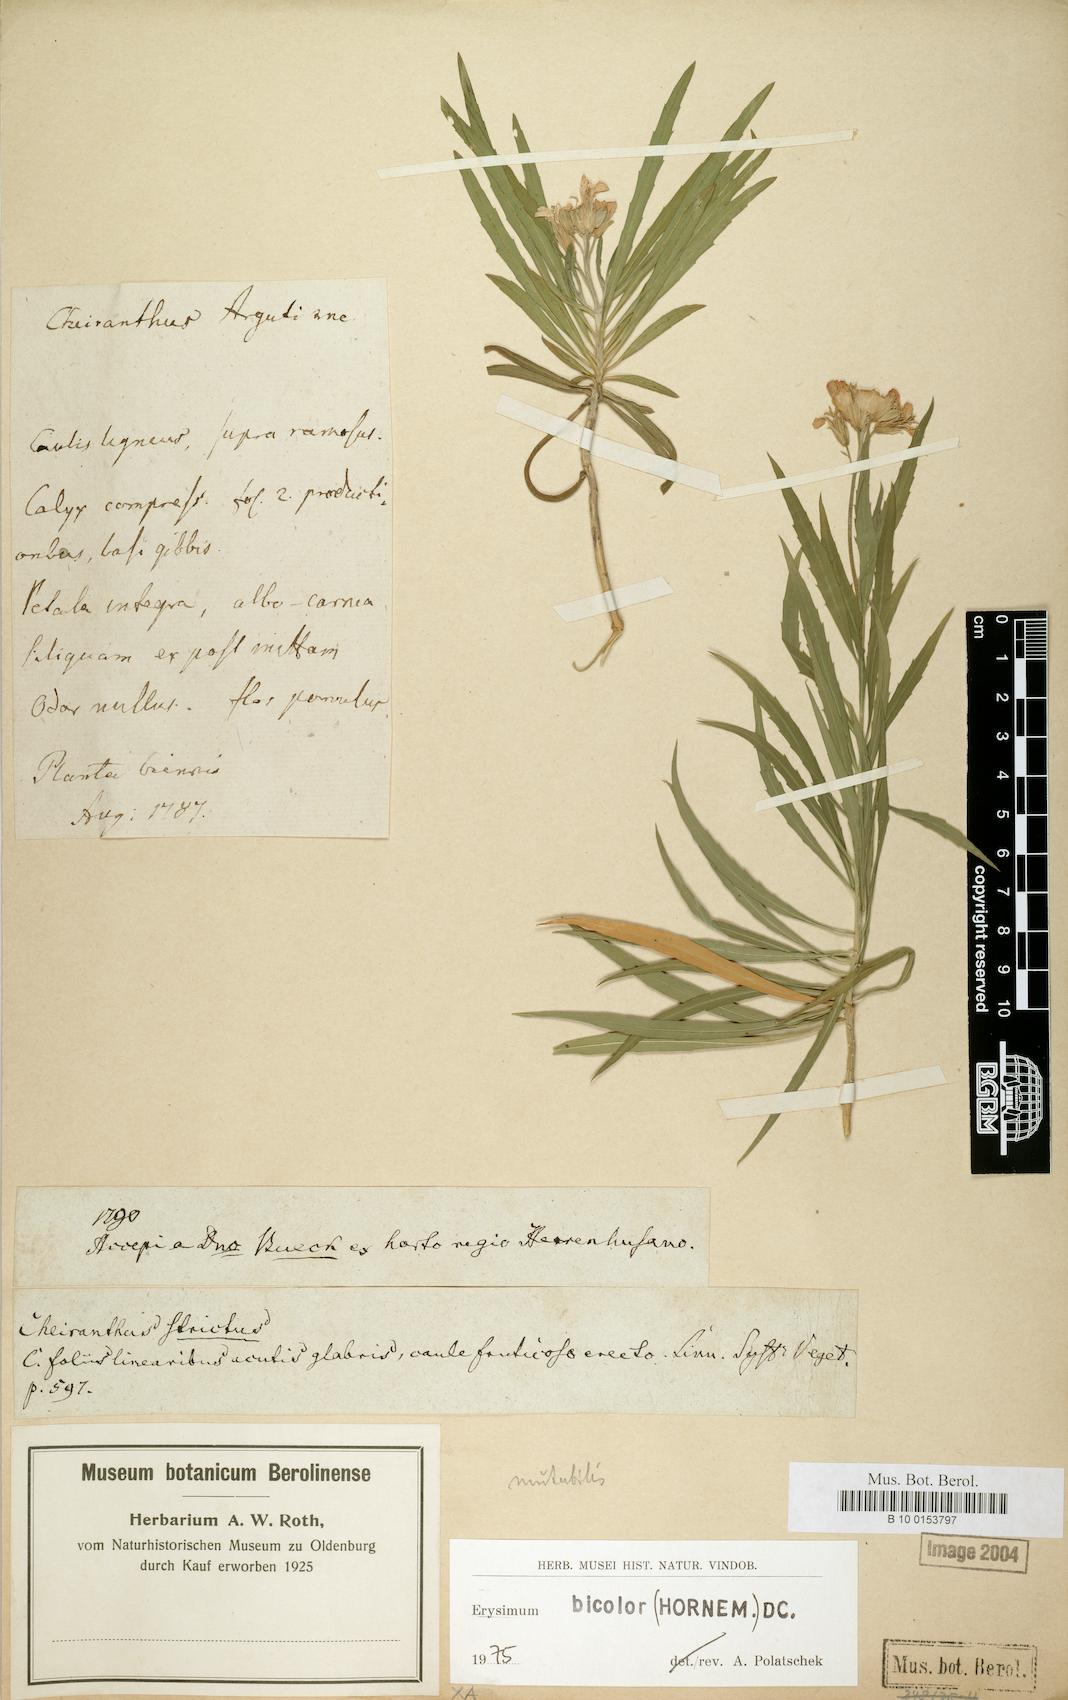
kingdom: Plantae
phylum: Tracheophyta
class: Magnoliopsida
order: Brassicales
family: Brassicaceae
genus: Erysimum
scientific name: Erysimum bicolor
